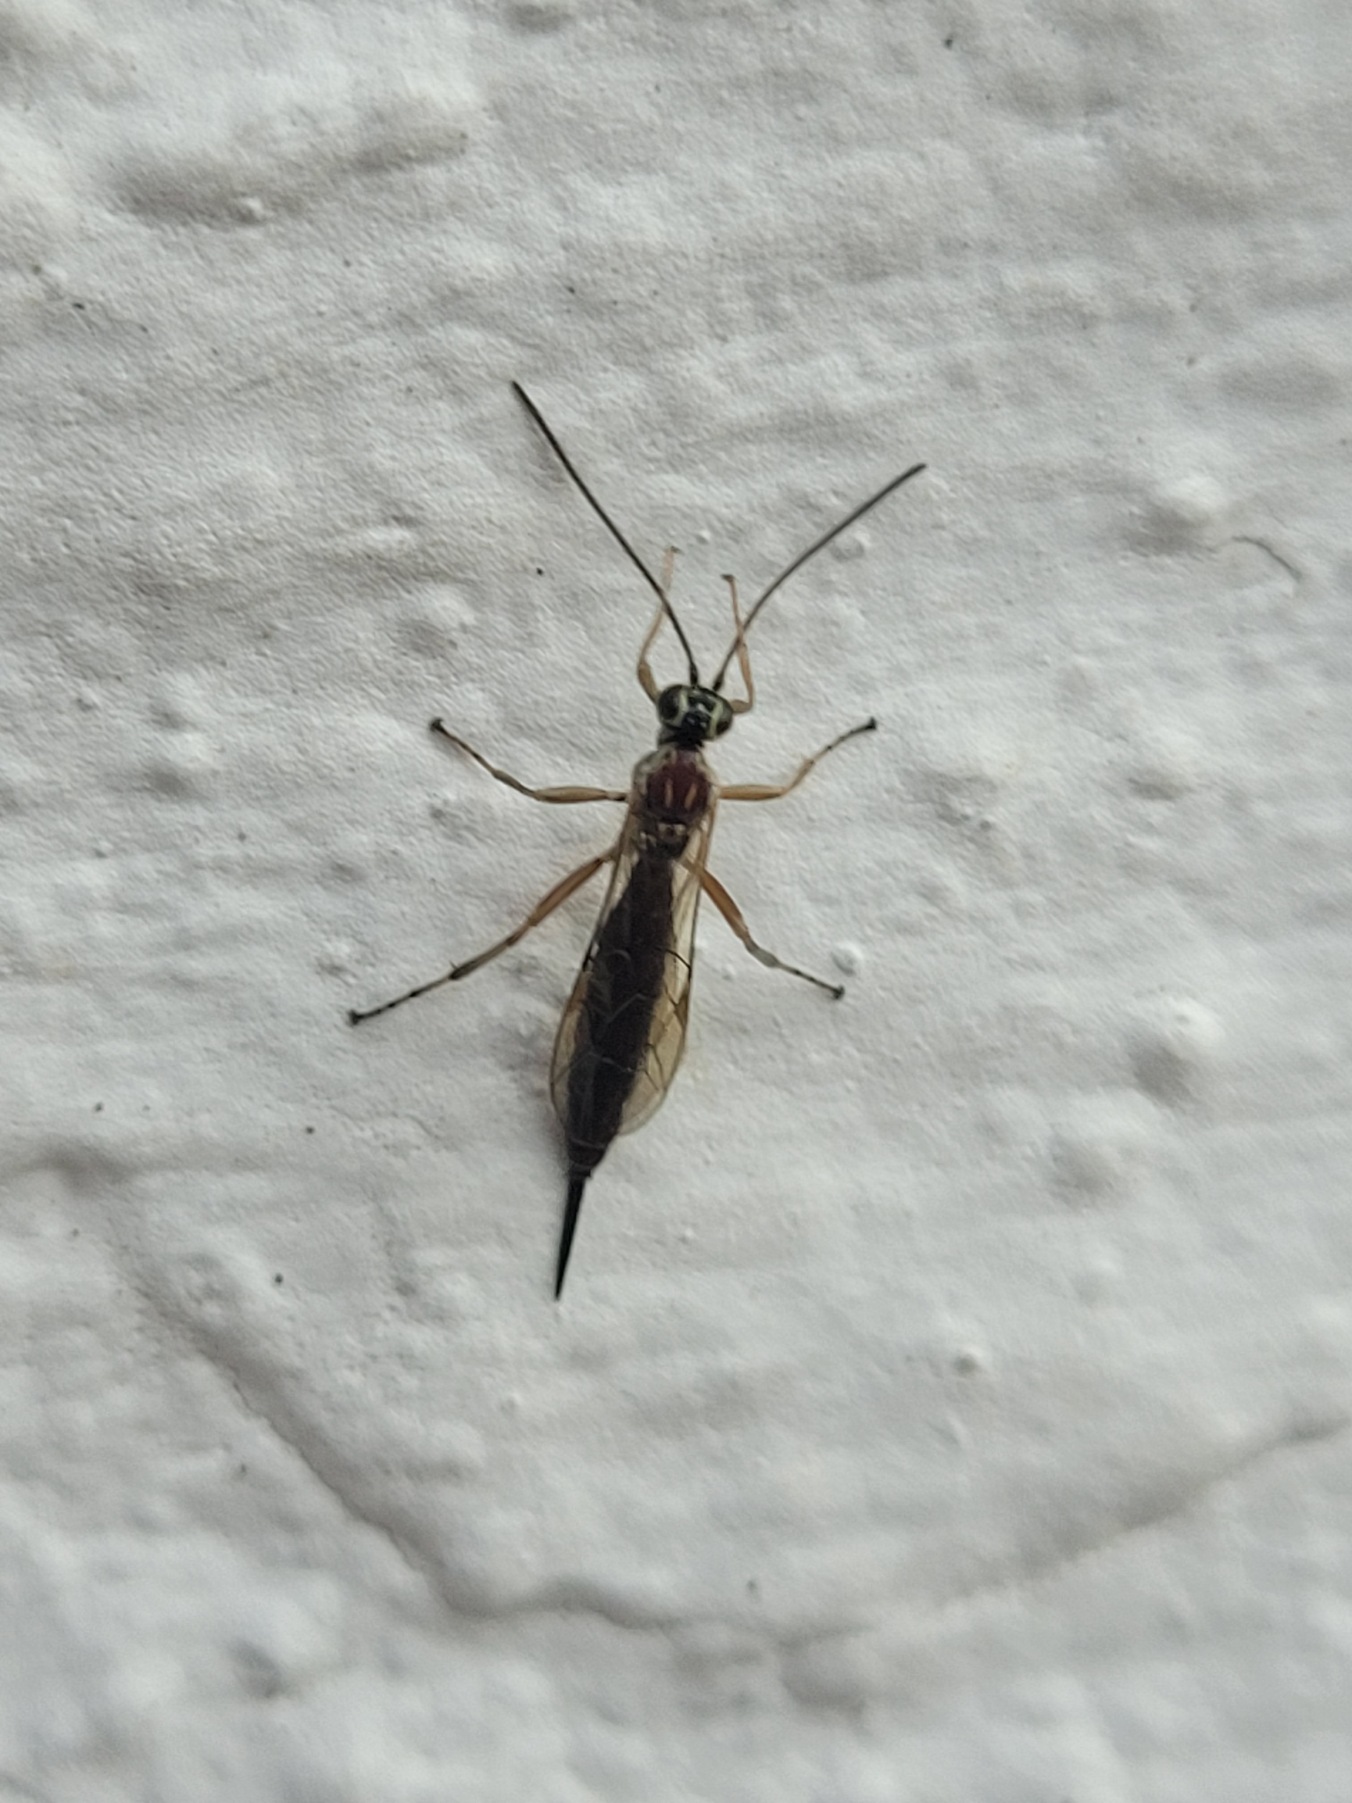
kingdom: Animalia
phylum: Arthropoda
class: Insecta
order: Hymenoptera
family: Ichneumonidae
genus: Tromatobia
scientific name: Tromatobia lineatoria
